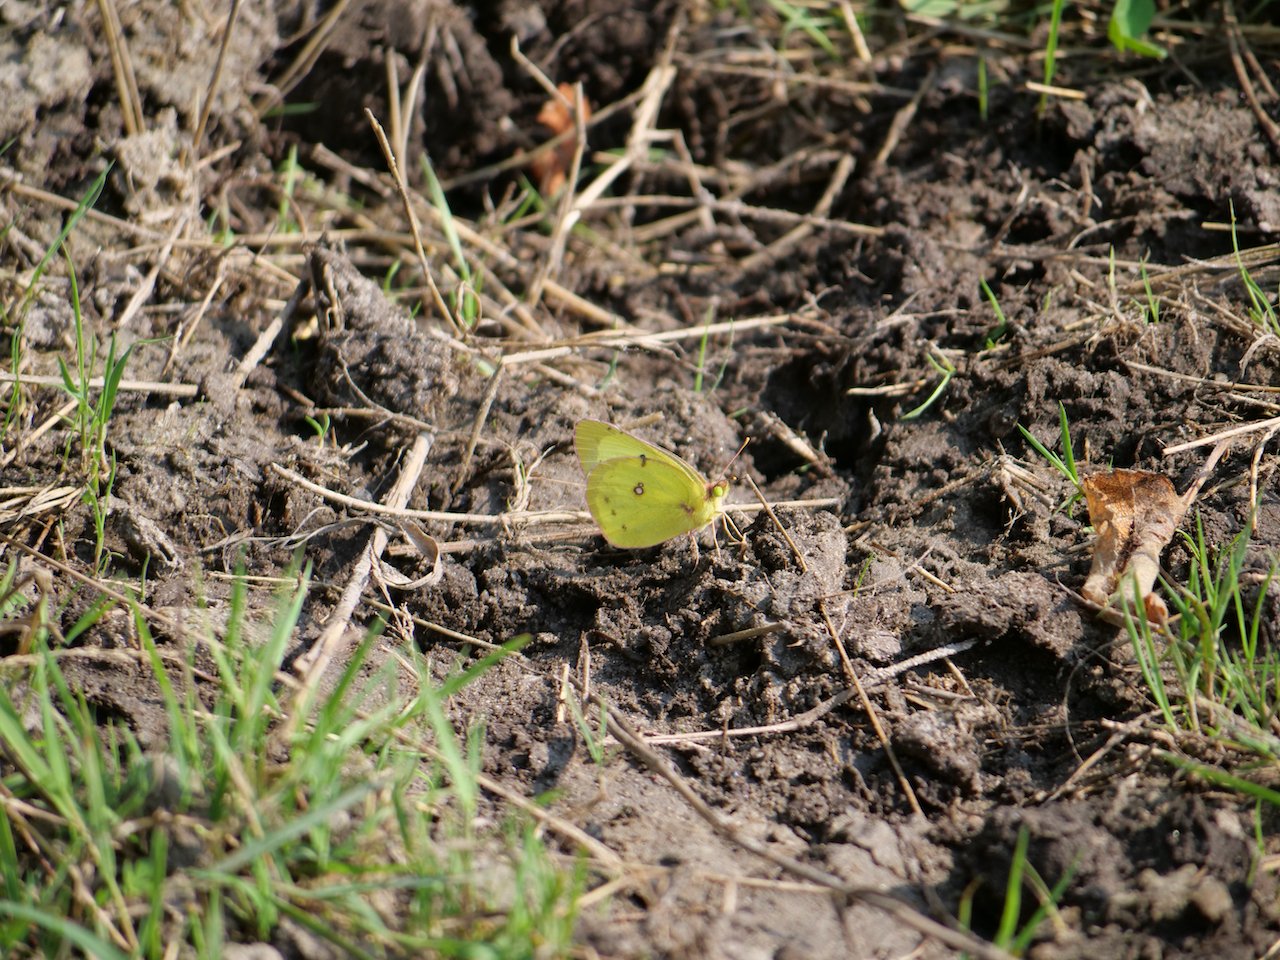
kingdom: Animalia
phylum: Arthropoda
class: Insecta
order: Lepidoptera
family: Pieridae
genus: Colias
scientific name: Colias philodice
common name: Clouded Sulphur
